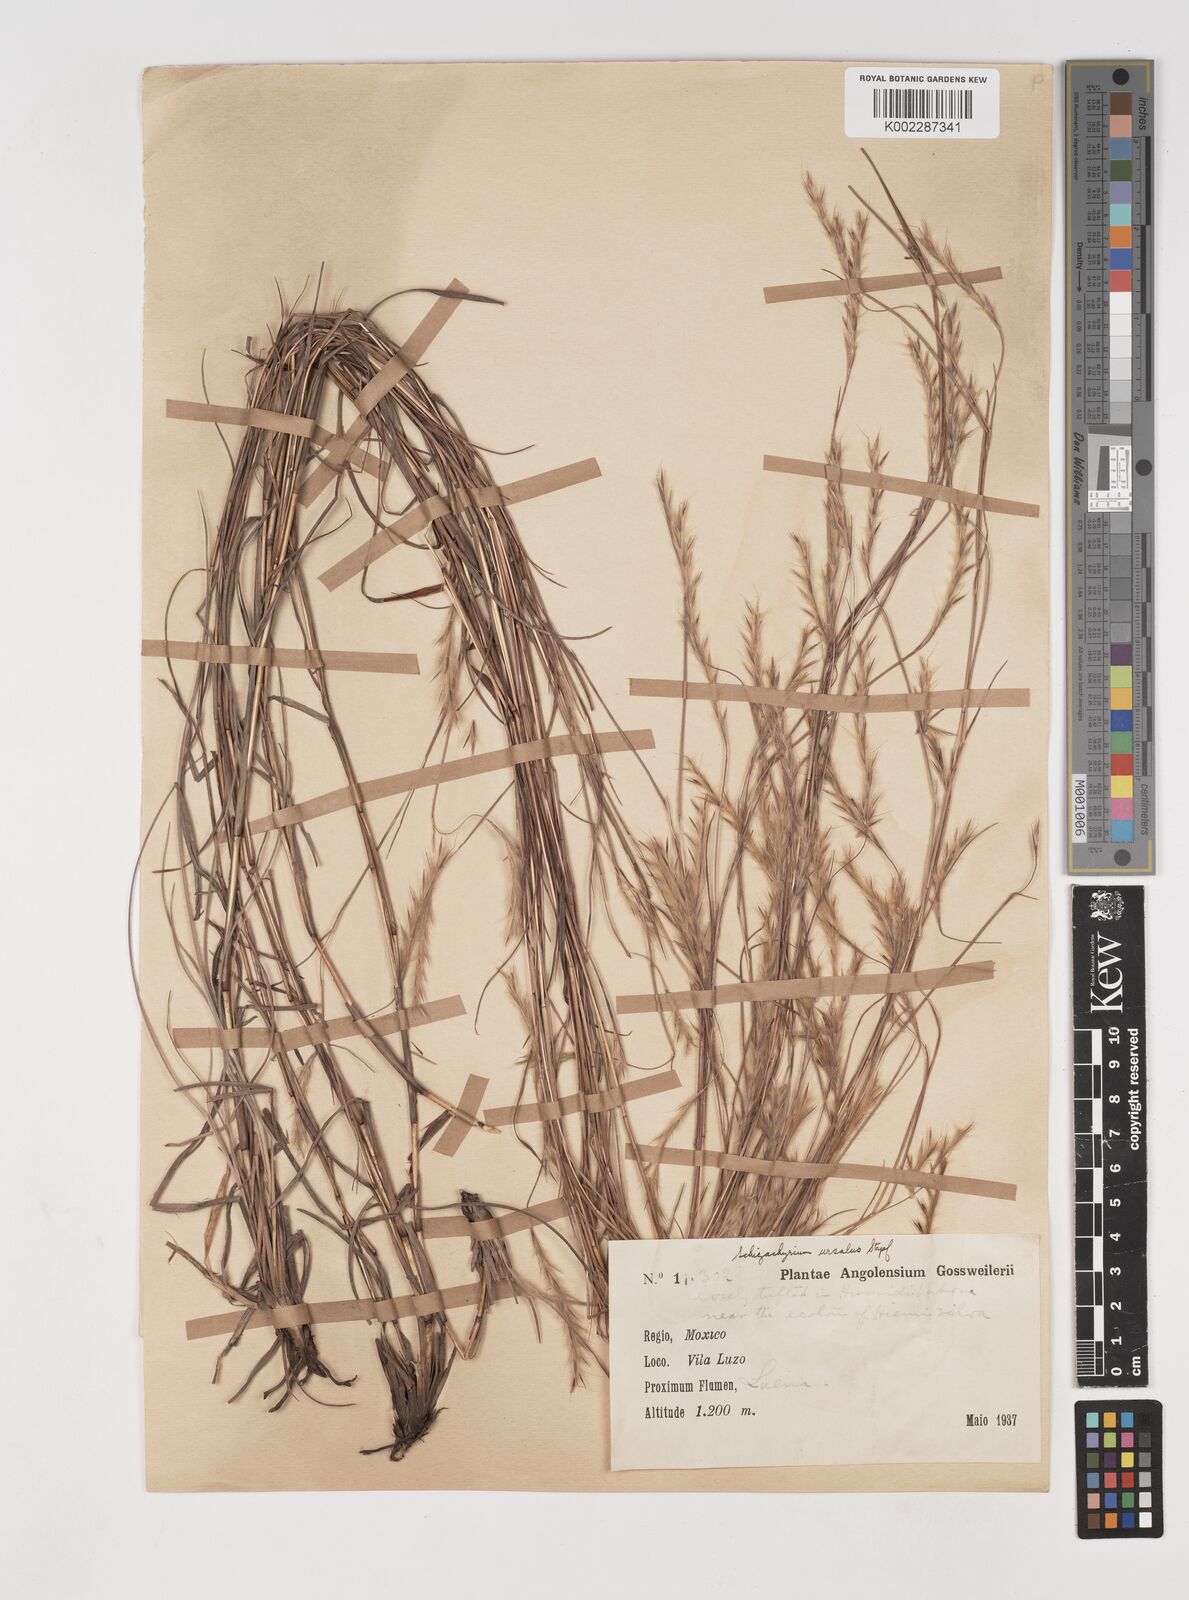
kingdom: Plantae
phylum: Tracheophyta
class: Liliopsida
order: Poales
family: Poaceae
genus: Andropogon
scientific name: Andropogon schweinfurthii
